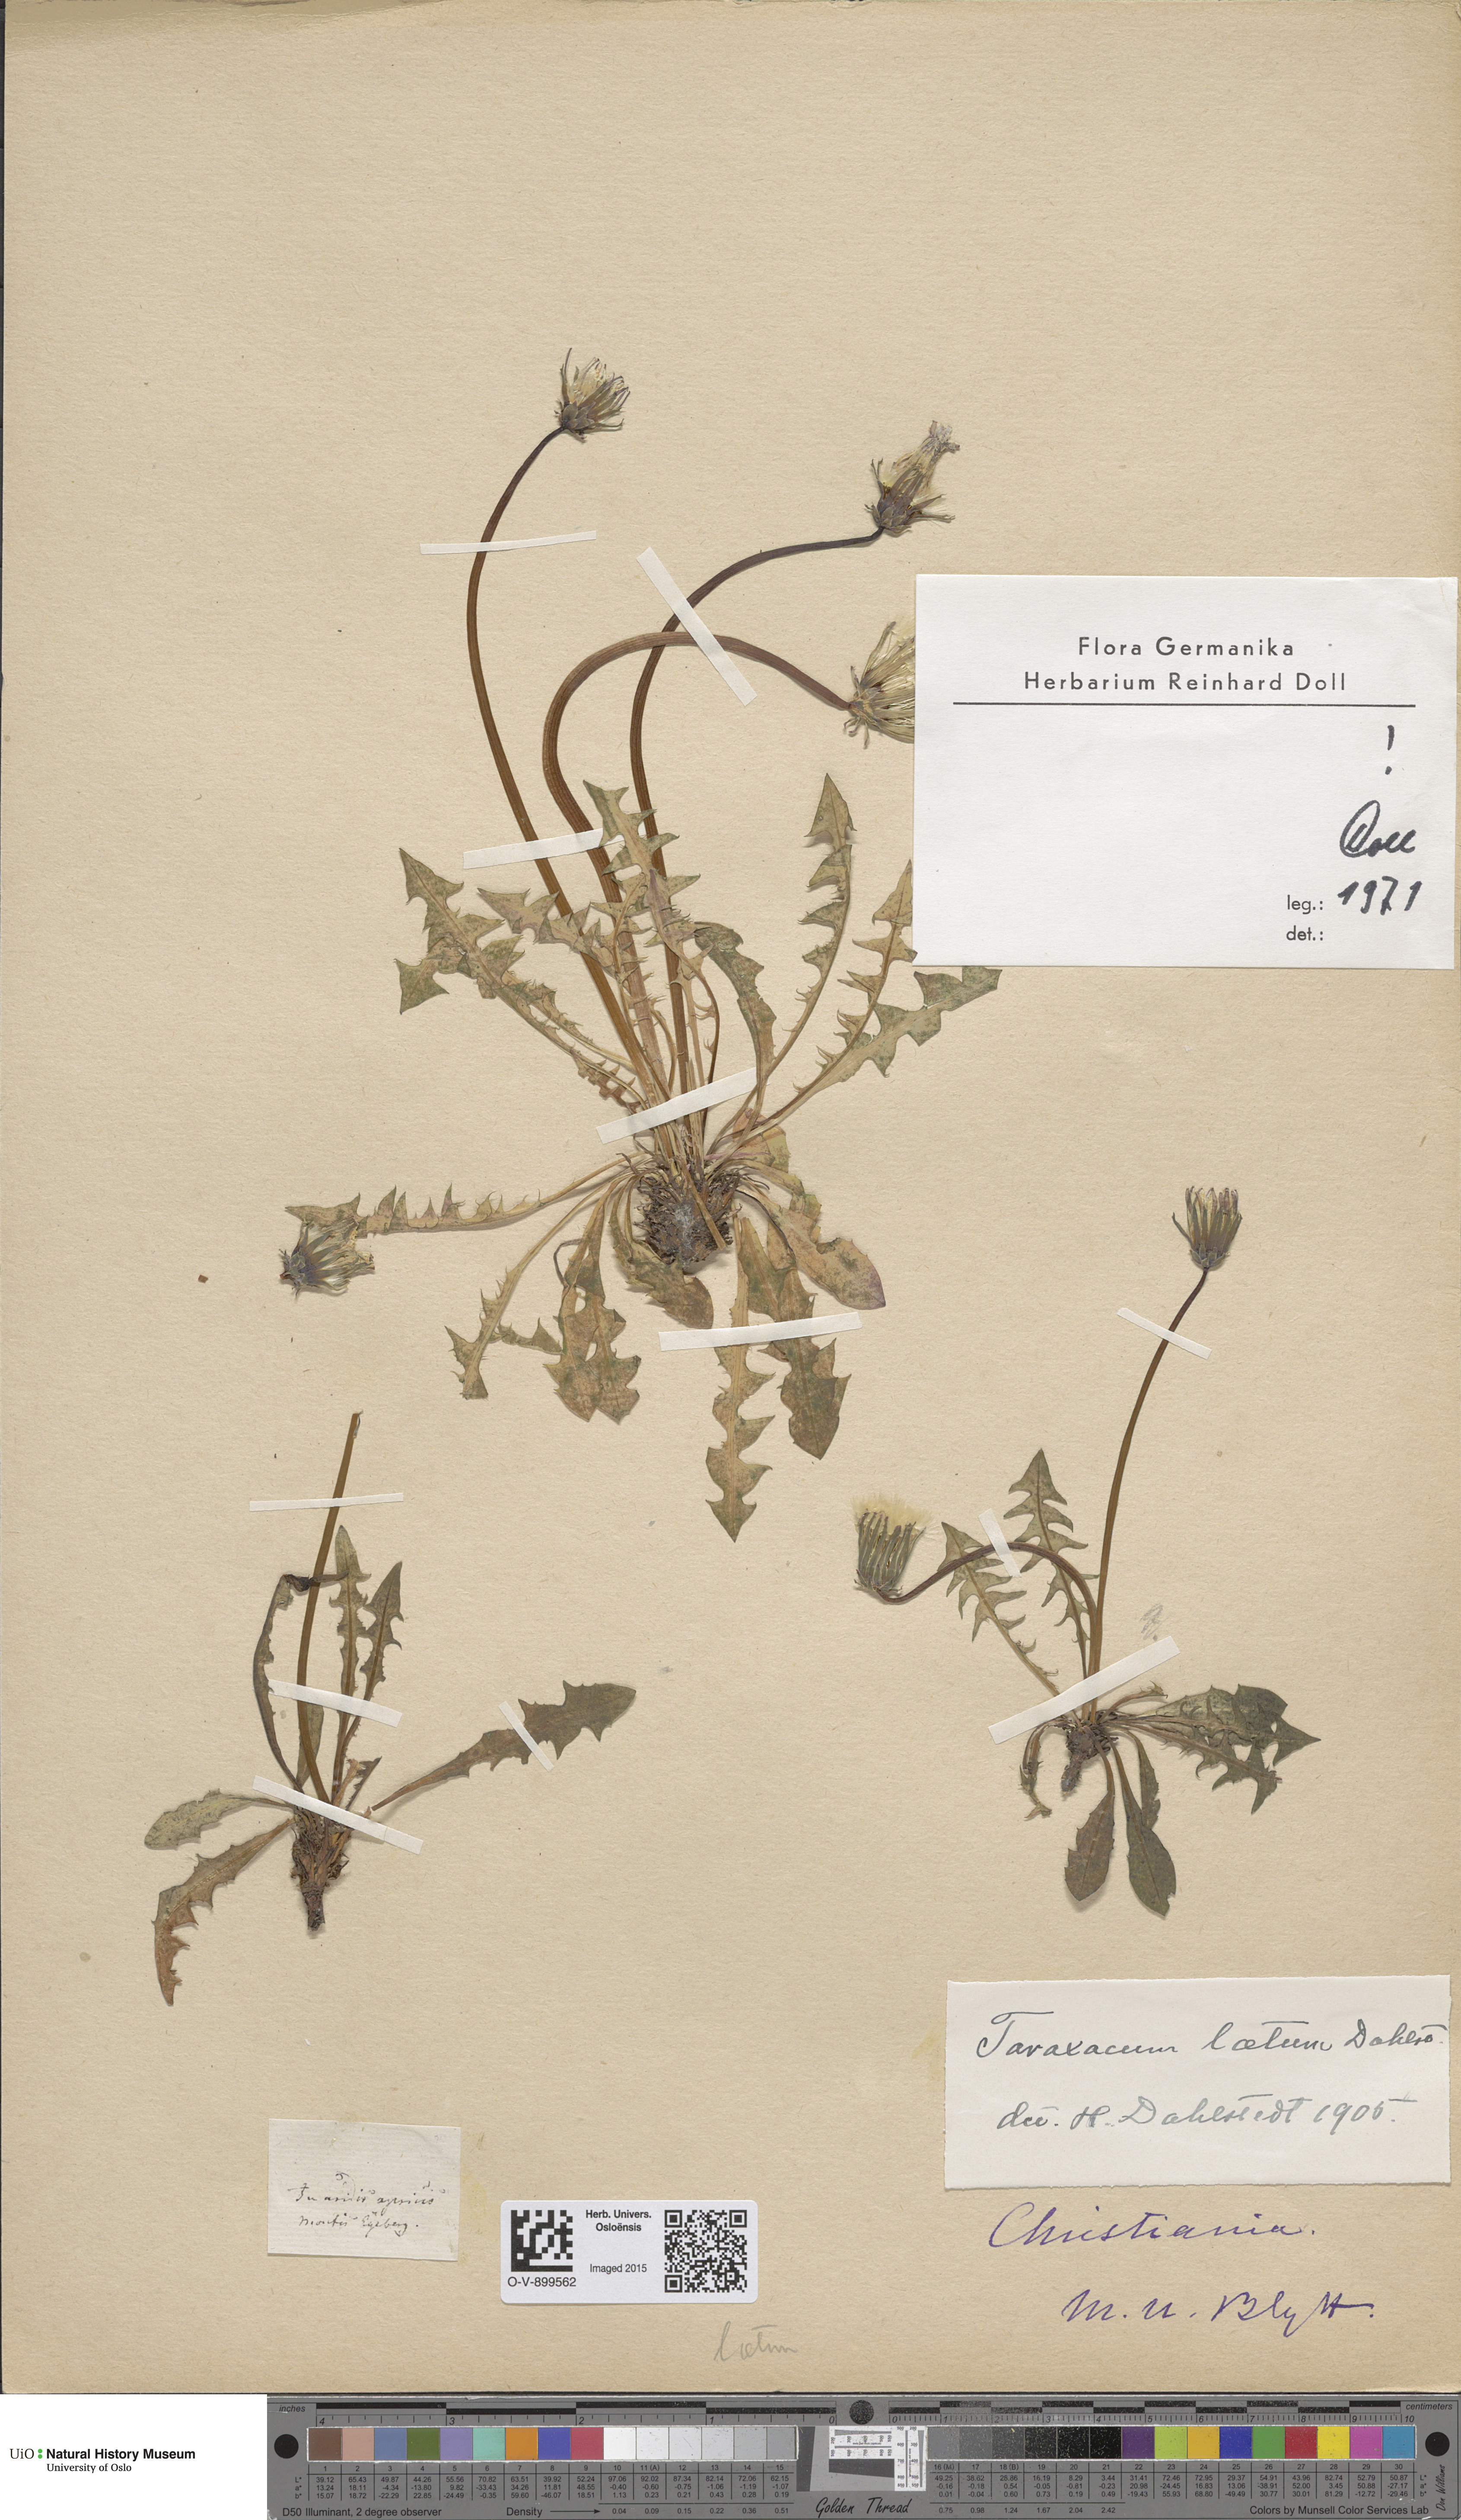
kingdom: Plantae
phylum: Tracheophyta
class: Magnoliopsida
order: Asterales
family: Asteraceae
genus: Taraxacum
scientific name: Taraxacum laetum
